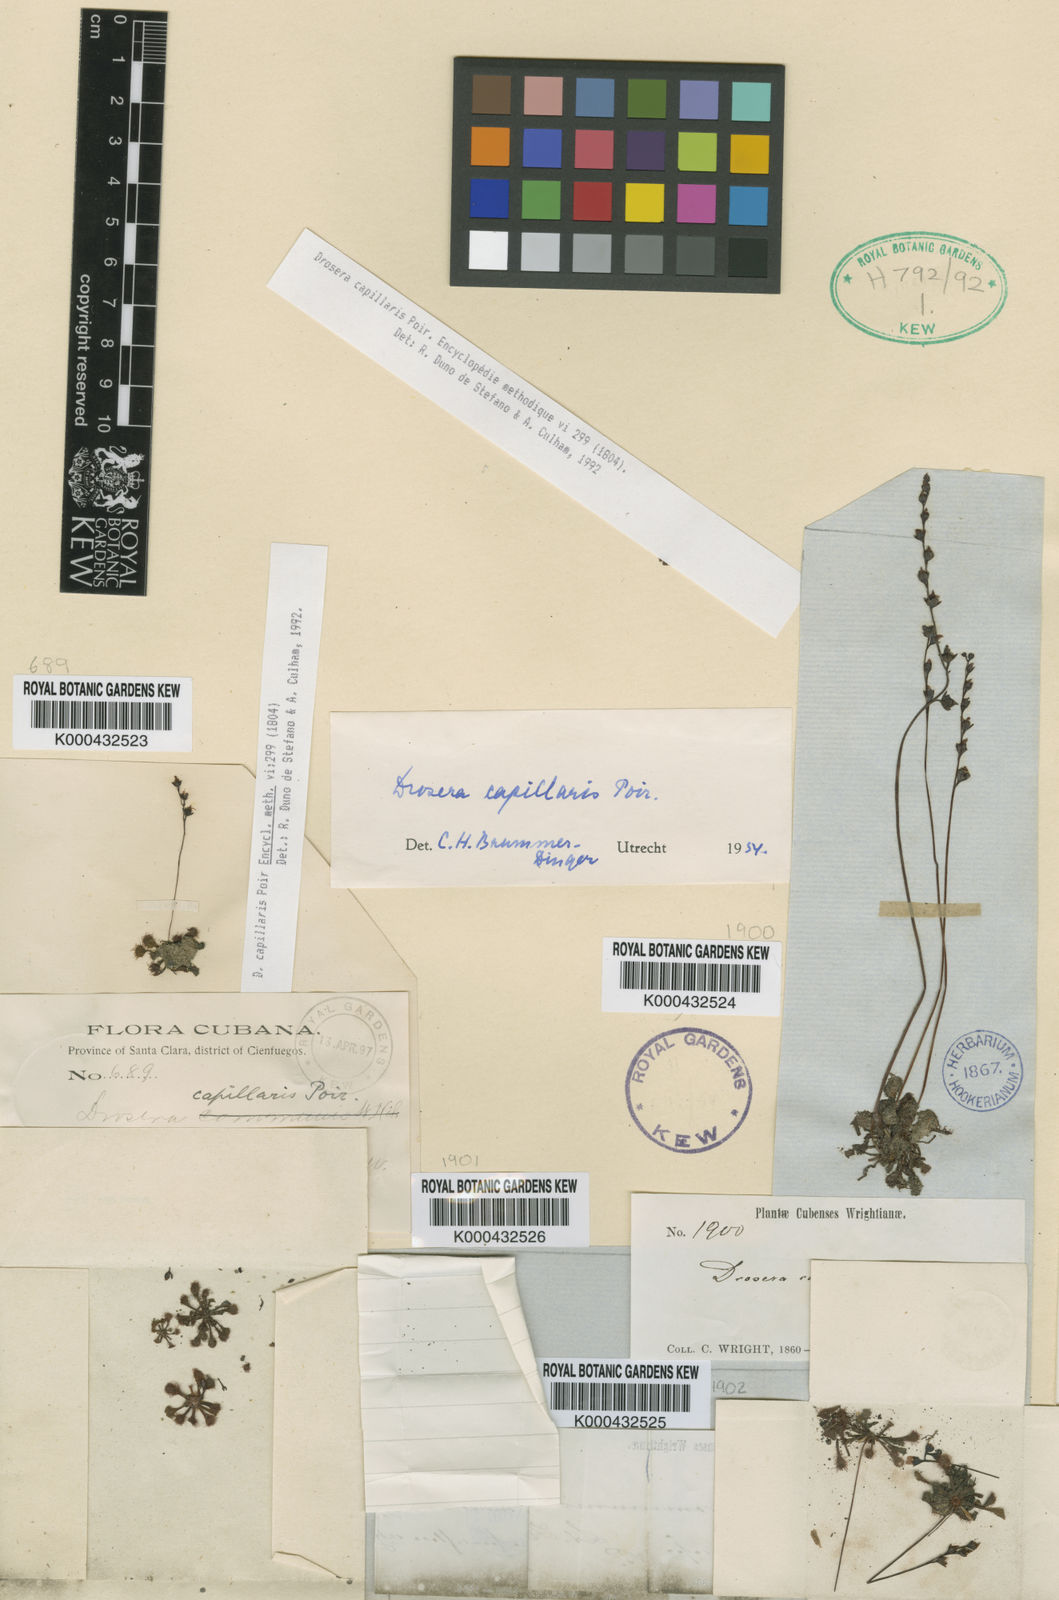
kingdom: Plantae
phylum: Tracheophyta
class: Magnoliopsida
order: Caryophyllales
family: Droseraceae
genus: Drosera
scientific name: Drosera capillaris
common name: Pink sundew
